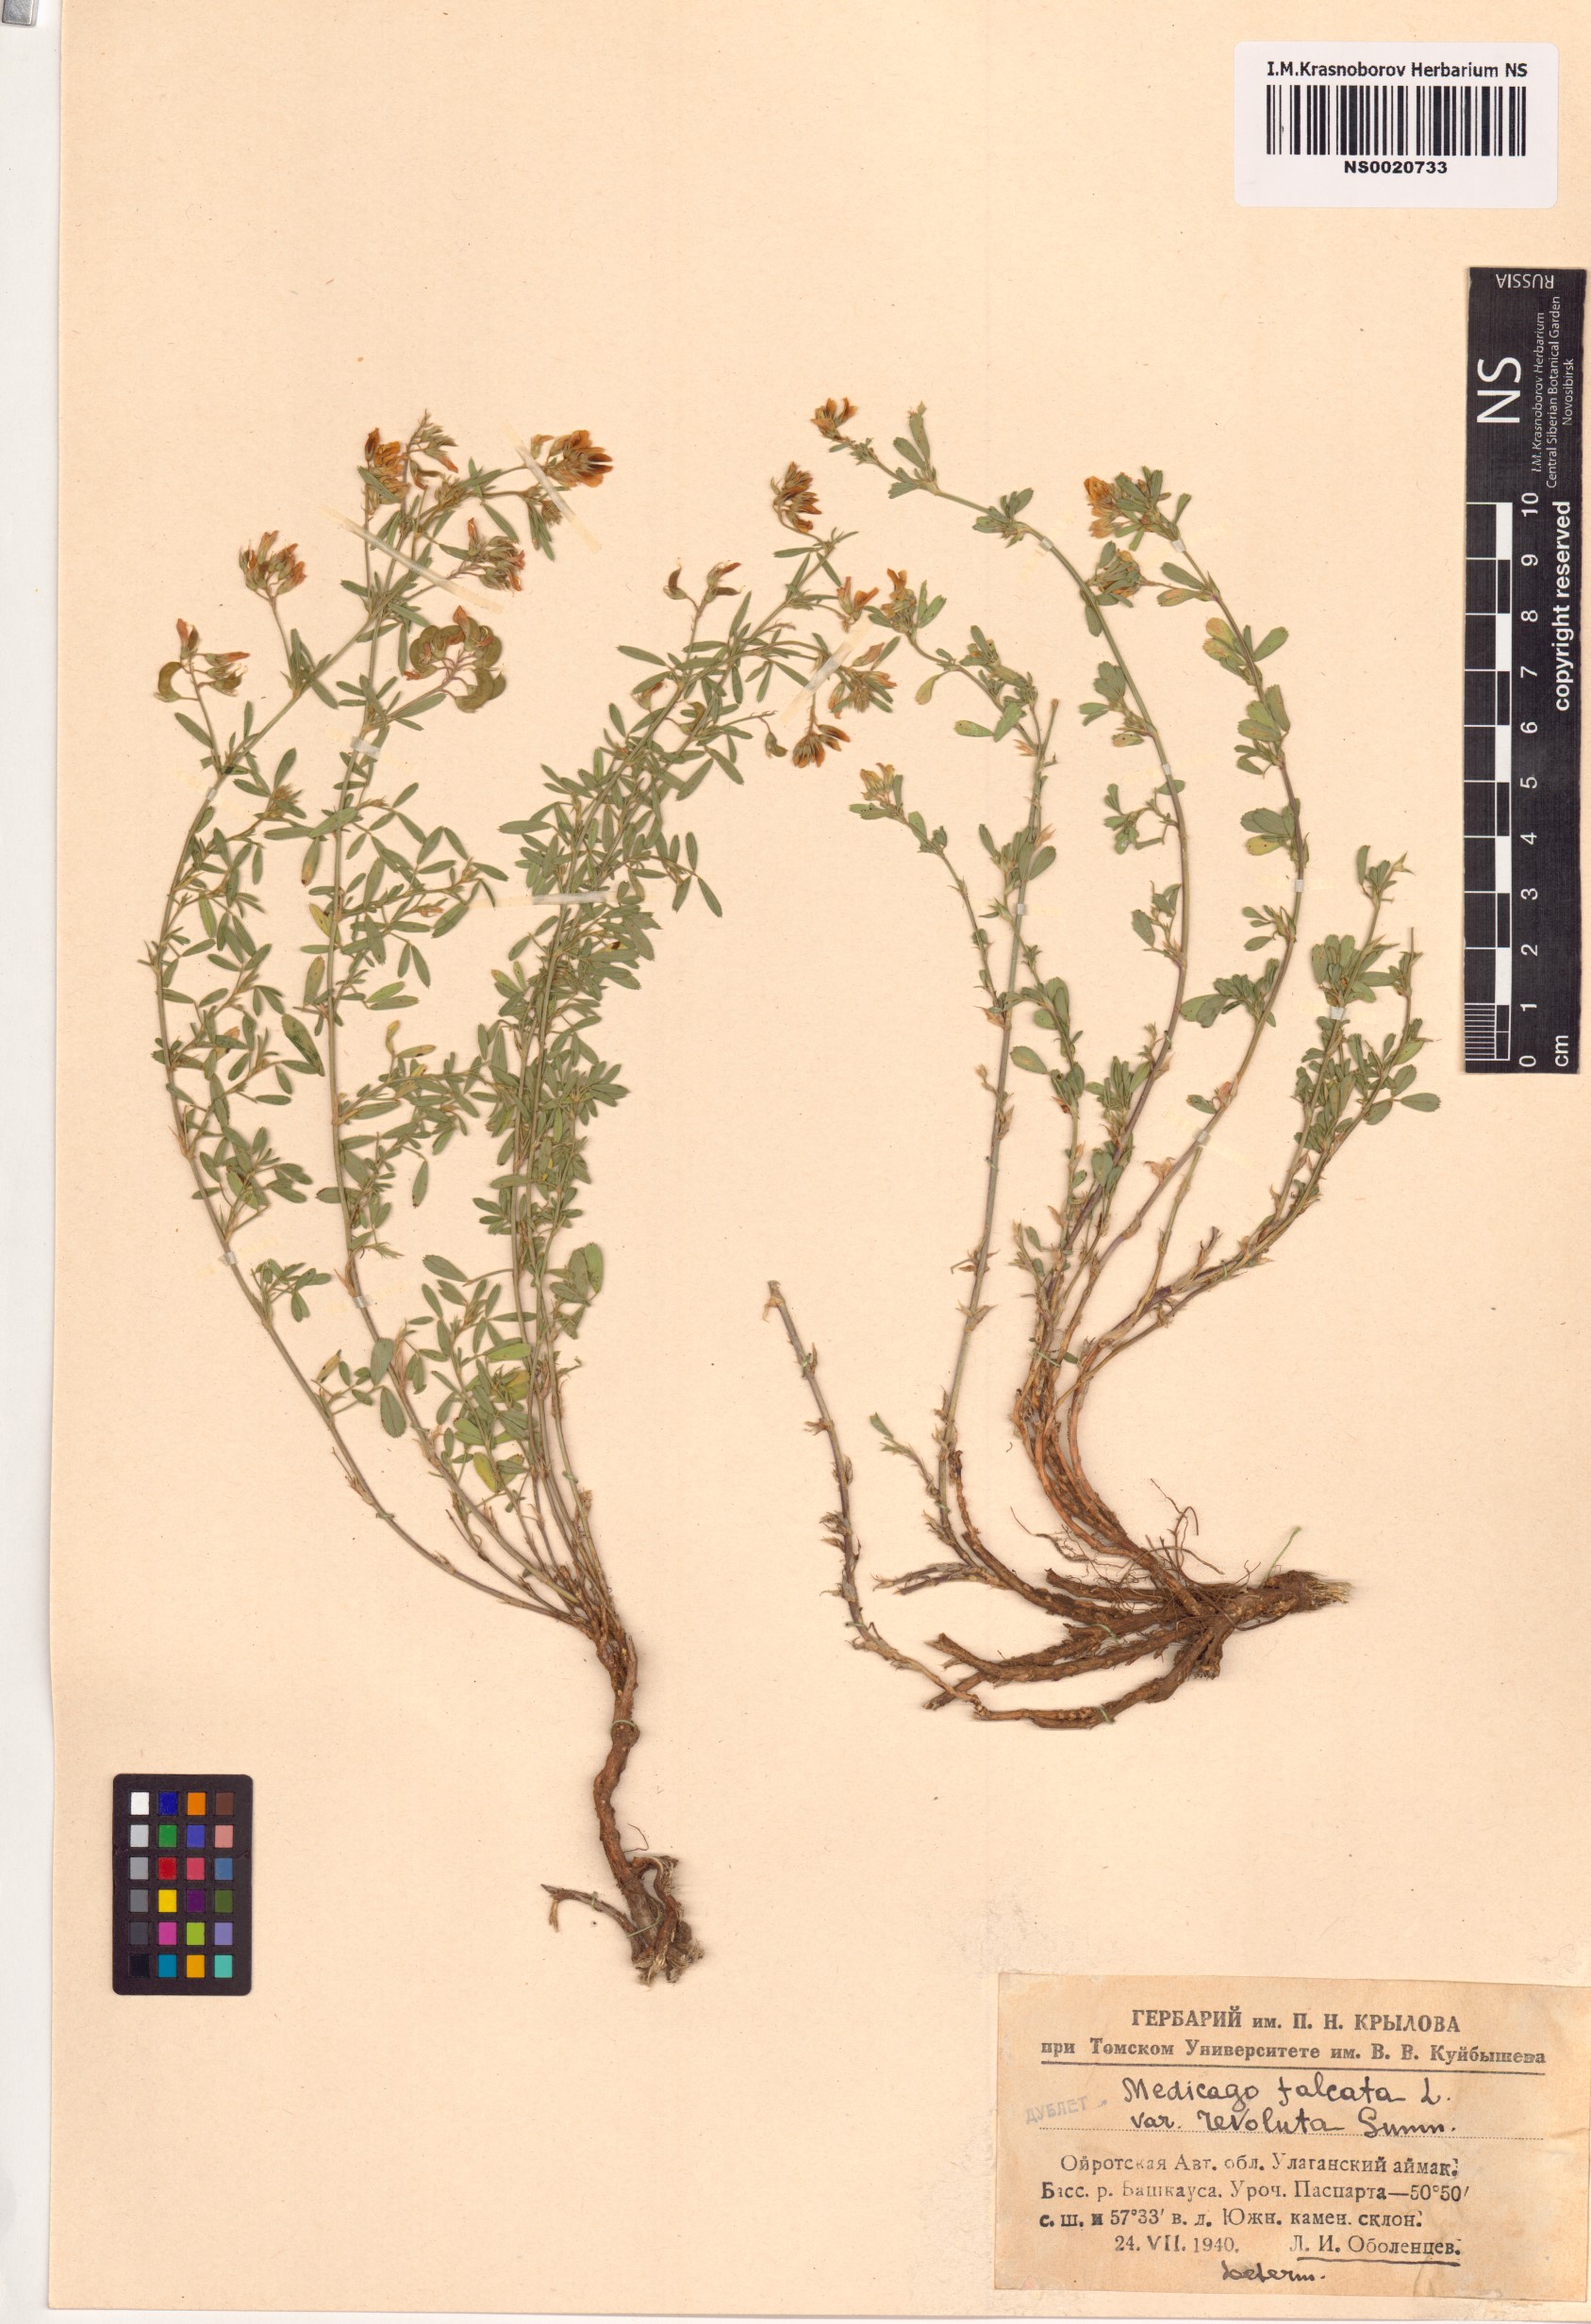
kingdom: Plantae
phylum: Tracheophyta
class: Magnoliopsida
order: Fabales
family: Fabaceae
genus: Medicago
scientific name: Medicago falcata
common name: Sickle medick
